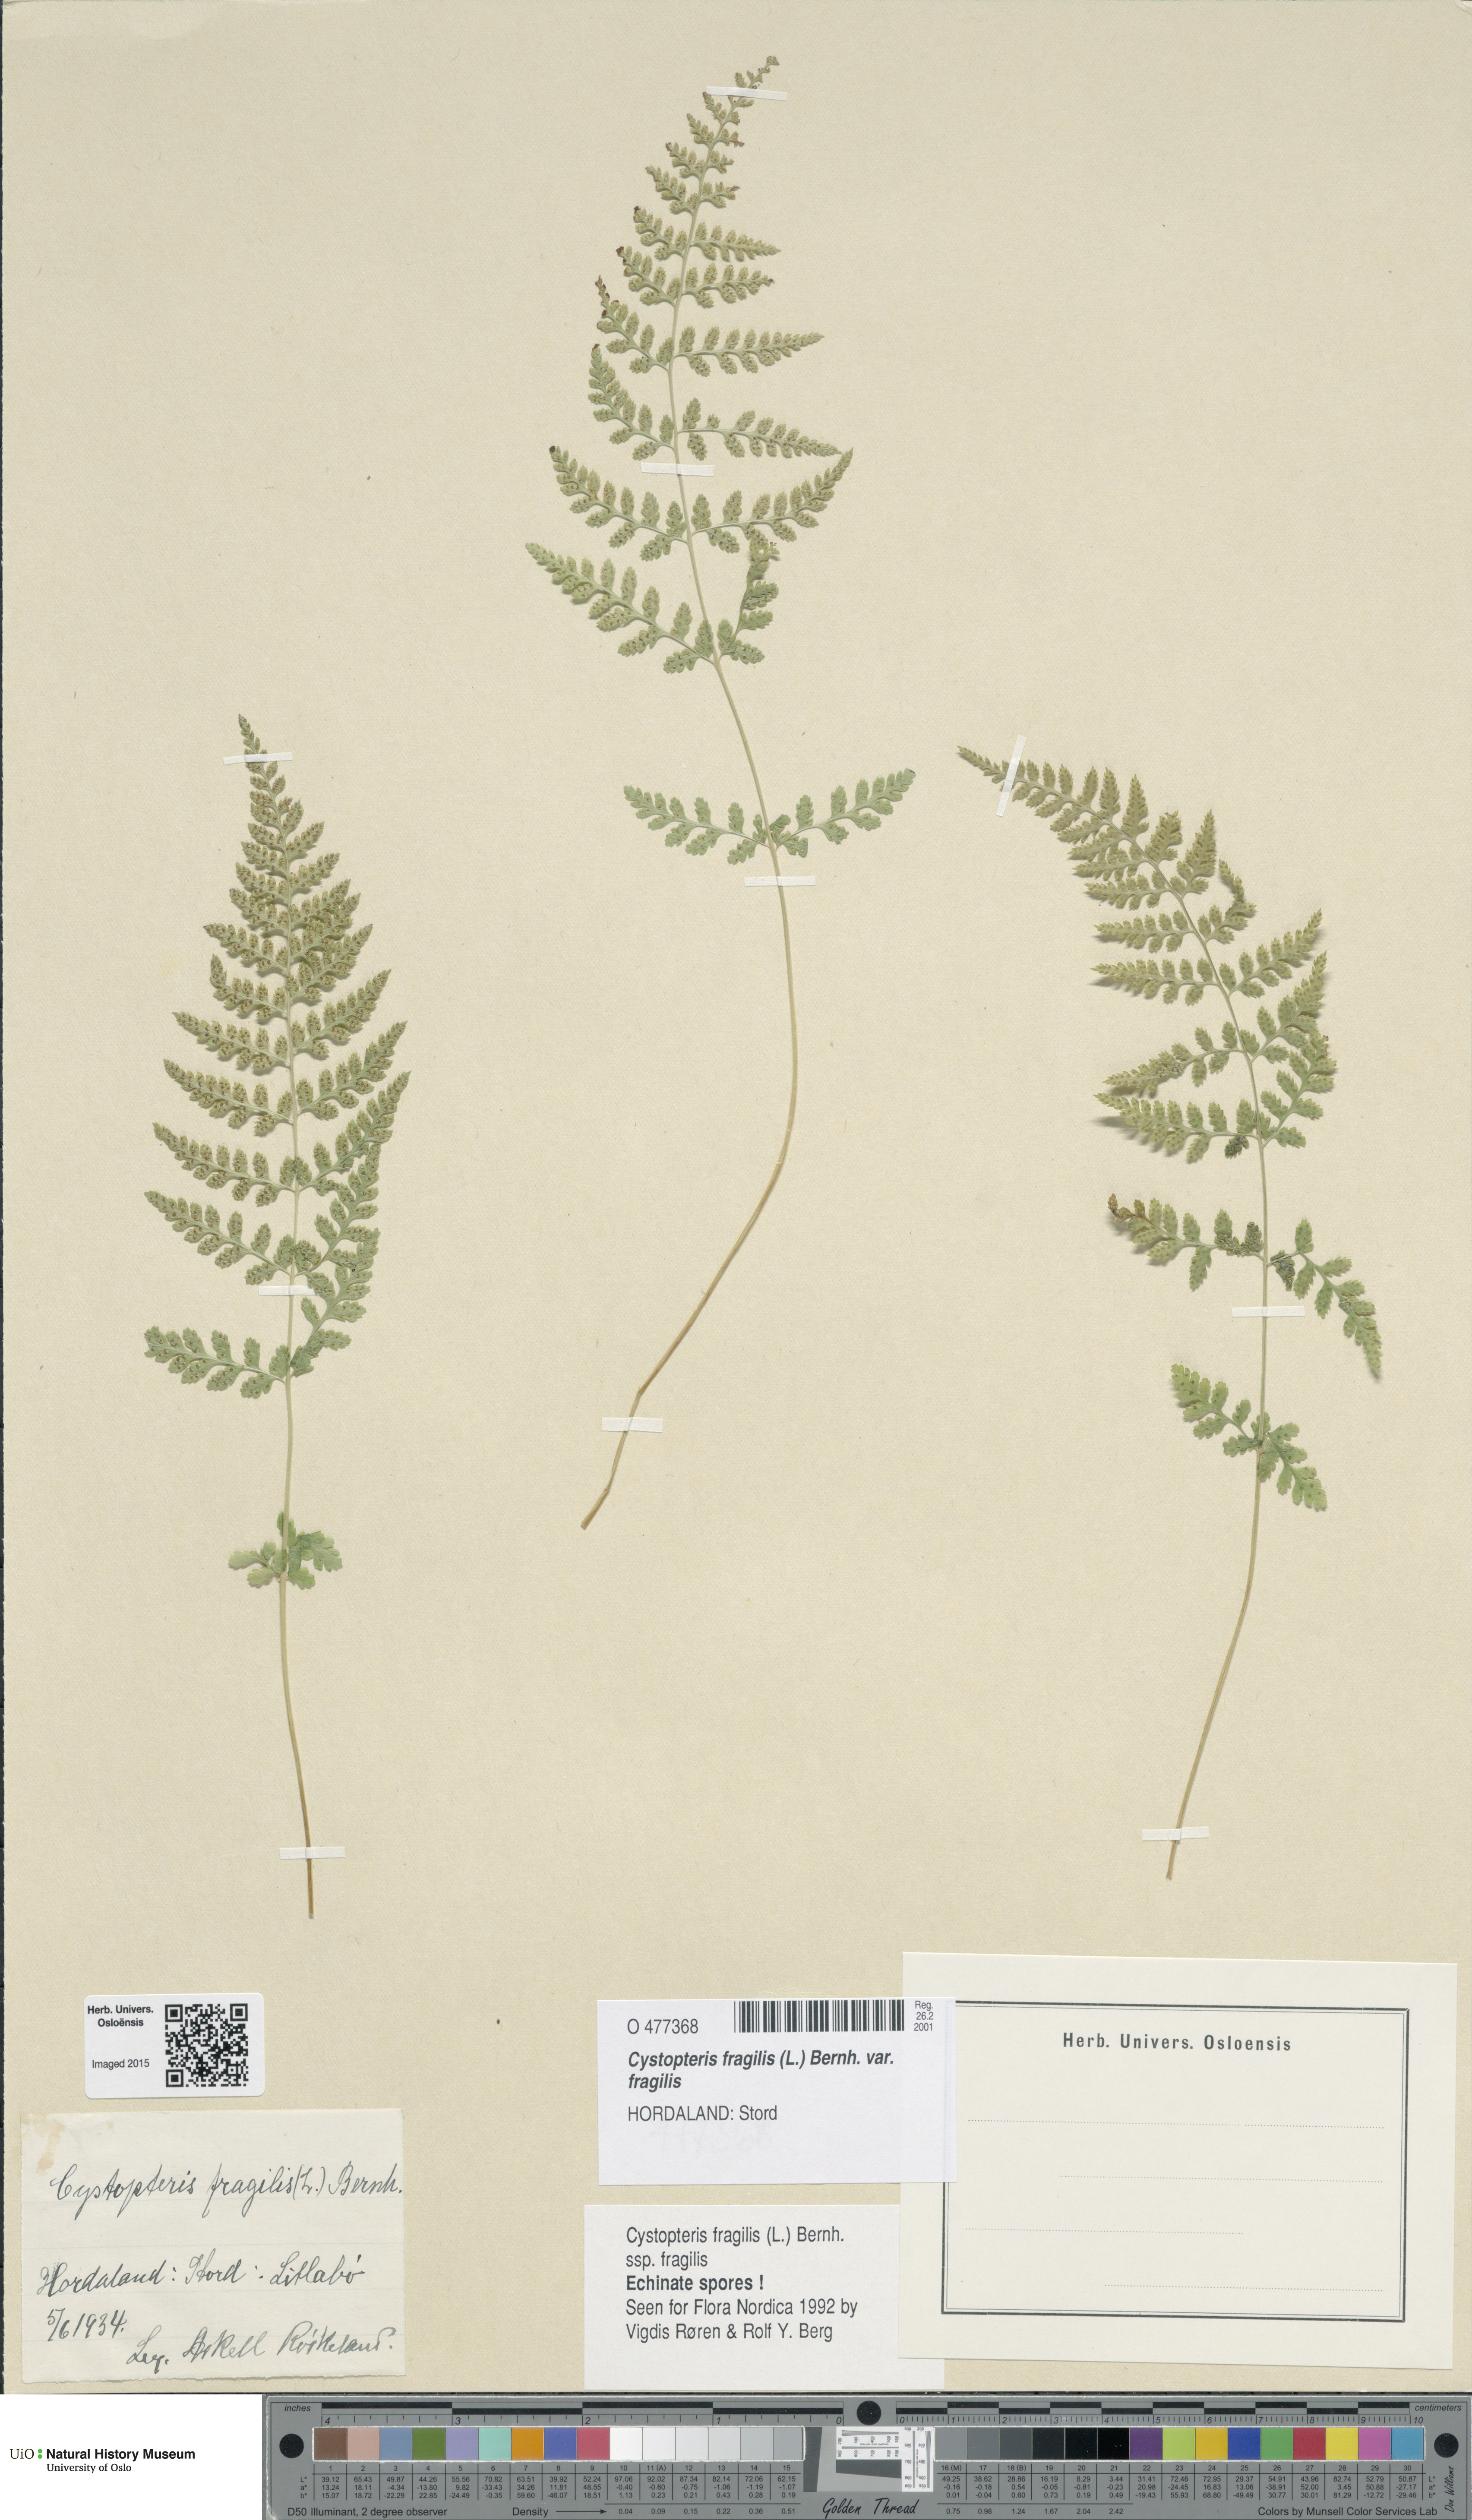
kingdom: Plantae
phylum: Tracheophyta
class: Polypodiopsida
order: Polypodiales
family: Cystopteridaceae
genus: Cystopteris
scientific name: Cystopteris fragilis
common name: Brittle bladder fern
